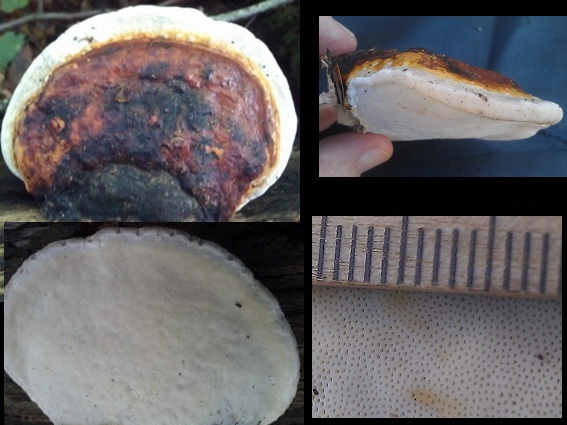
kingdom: Fungi
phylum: Basidiomycota
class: Agaricomycetes
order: Polyporales
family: Fomitopsidaceae
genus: Fomitopsis
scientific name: Fomitopsis pinicola
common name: randbæltet hovporesvamp
